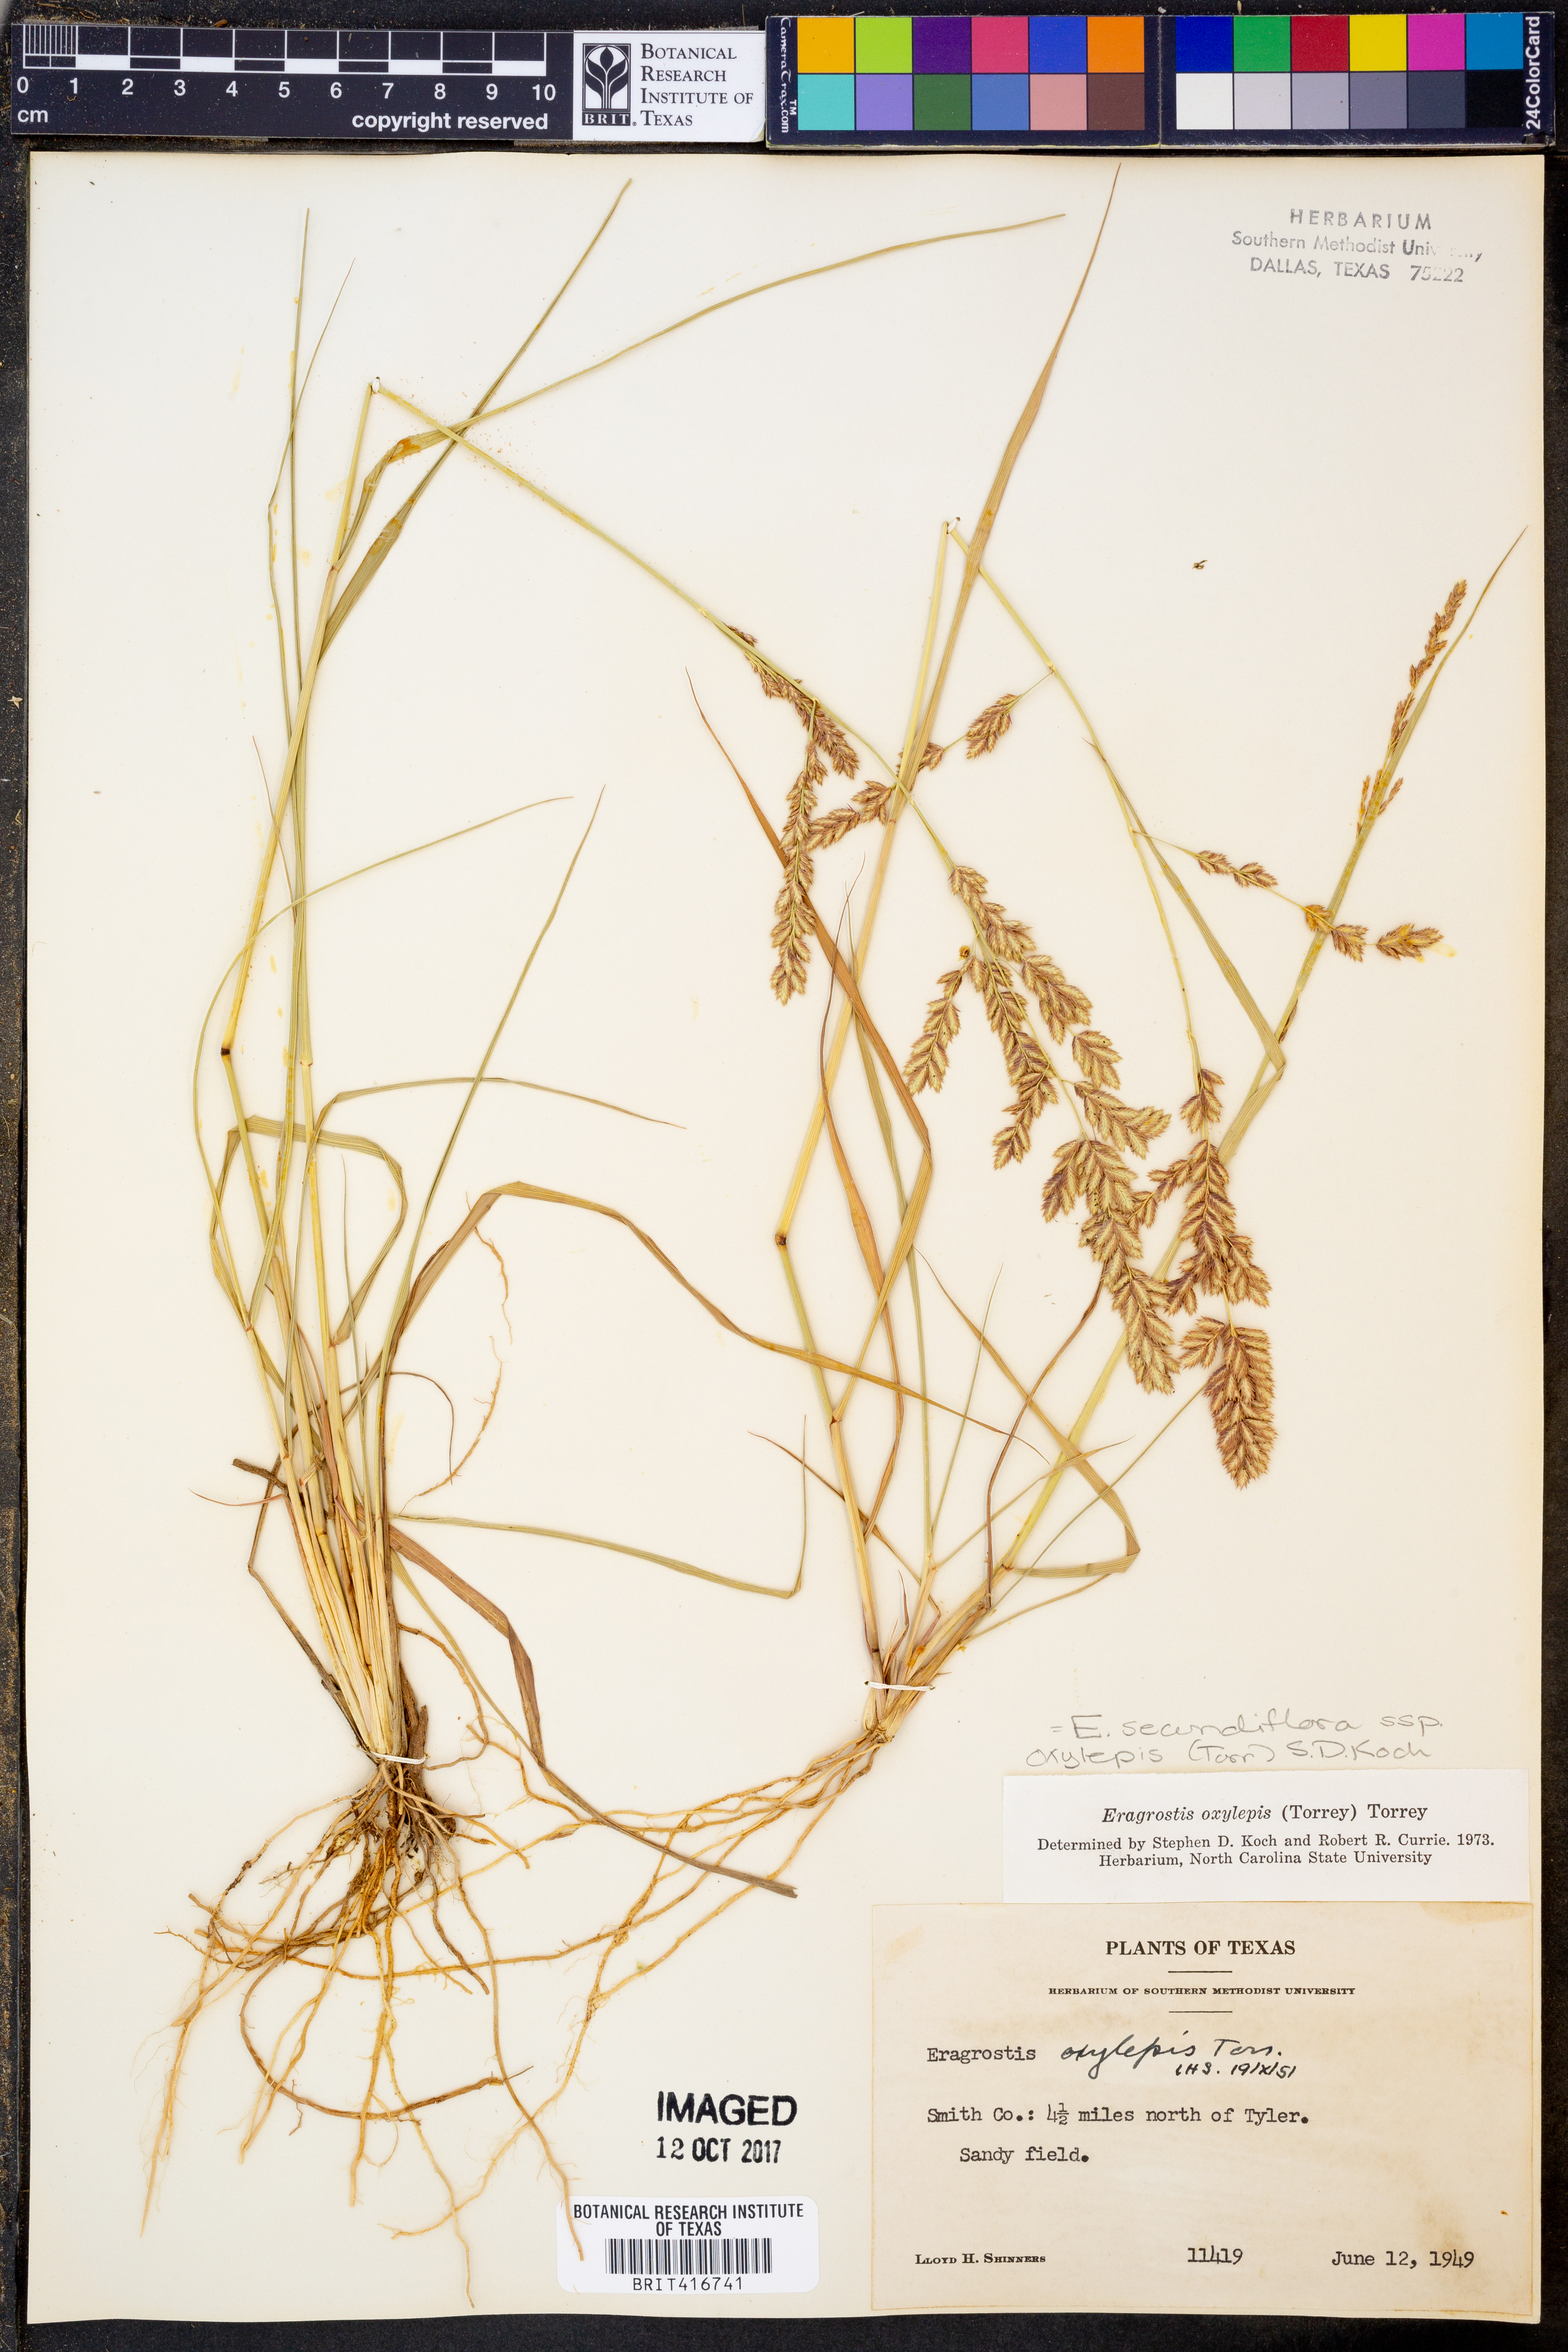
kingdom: Plantae
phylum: Tracheophyta
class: Liliopsida
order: Poales
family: Poaceae
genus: Eragrostis
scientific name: Eragrostis secundiflora
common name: Red love grass
